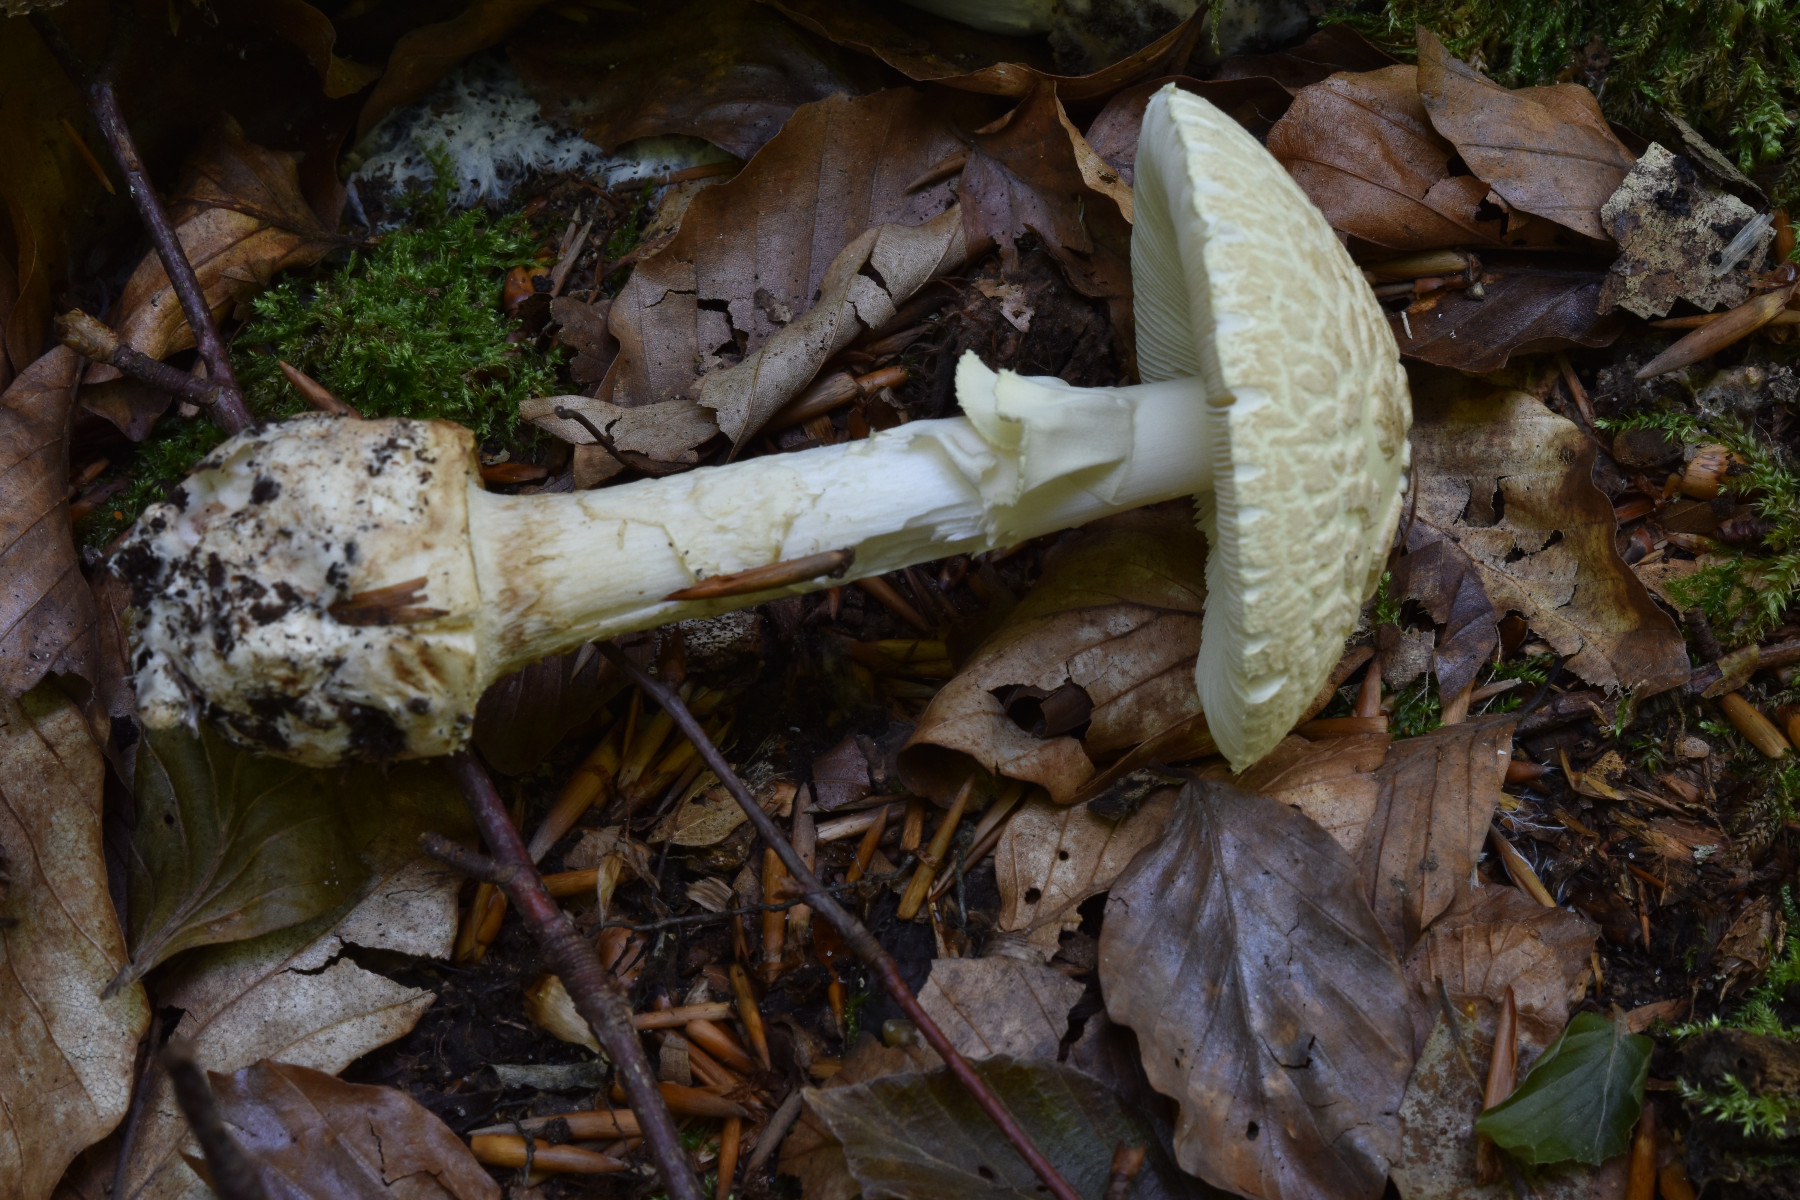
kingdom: Fungi
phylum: Basidiomycota
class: Agaricomycetes
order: Agaricales
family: Amanitaceae
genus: Amanita
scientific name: Amanita citrina
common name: kugleknoldet fluesvamp
